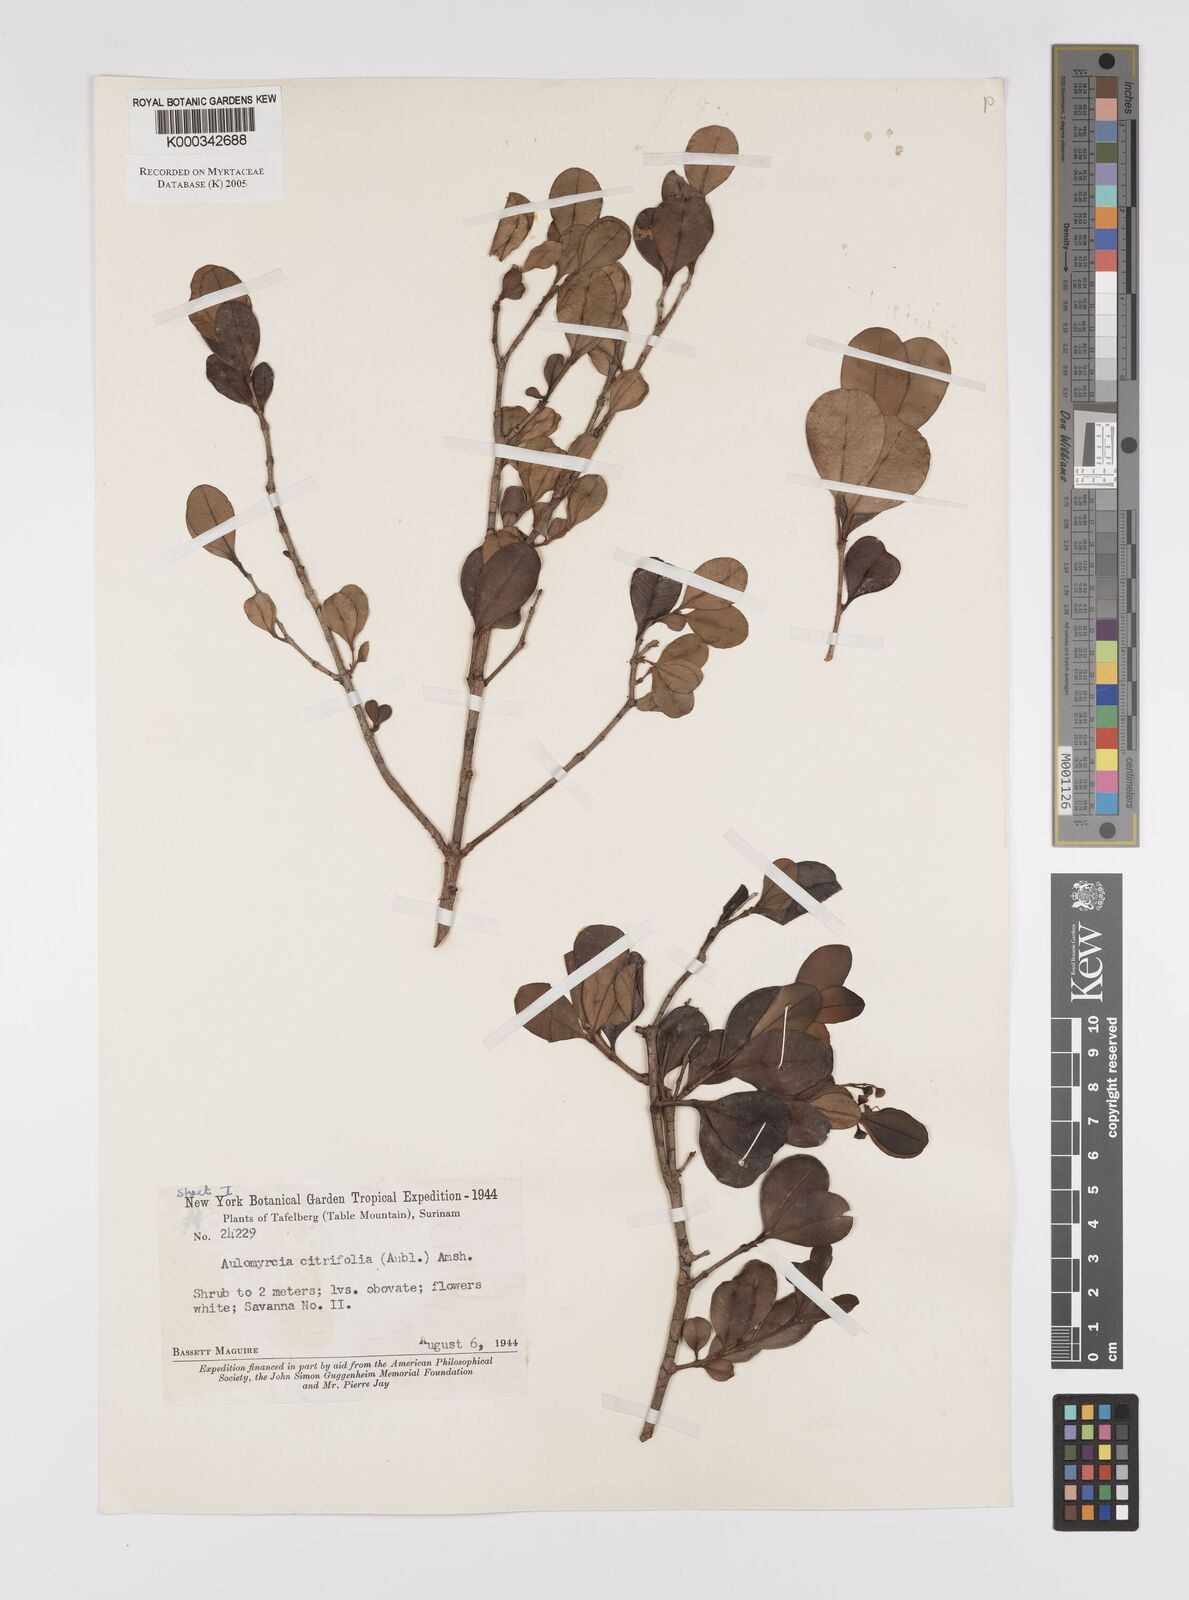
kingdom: Plantae
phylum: Tracheophyta
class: Magnoliopsida
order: Myrtales
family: Myrtaceae
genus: Myrcia
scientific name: Myrcia guianensis
